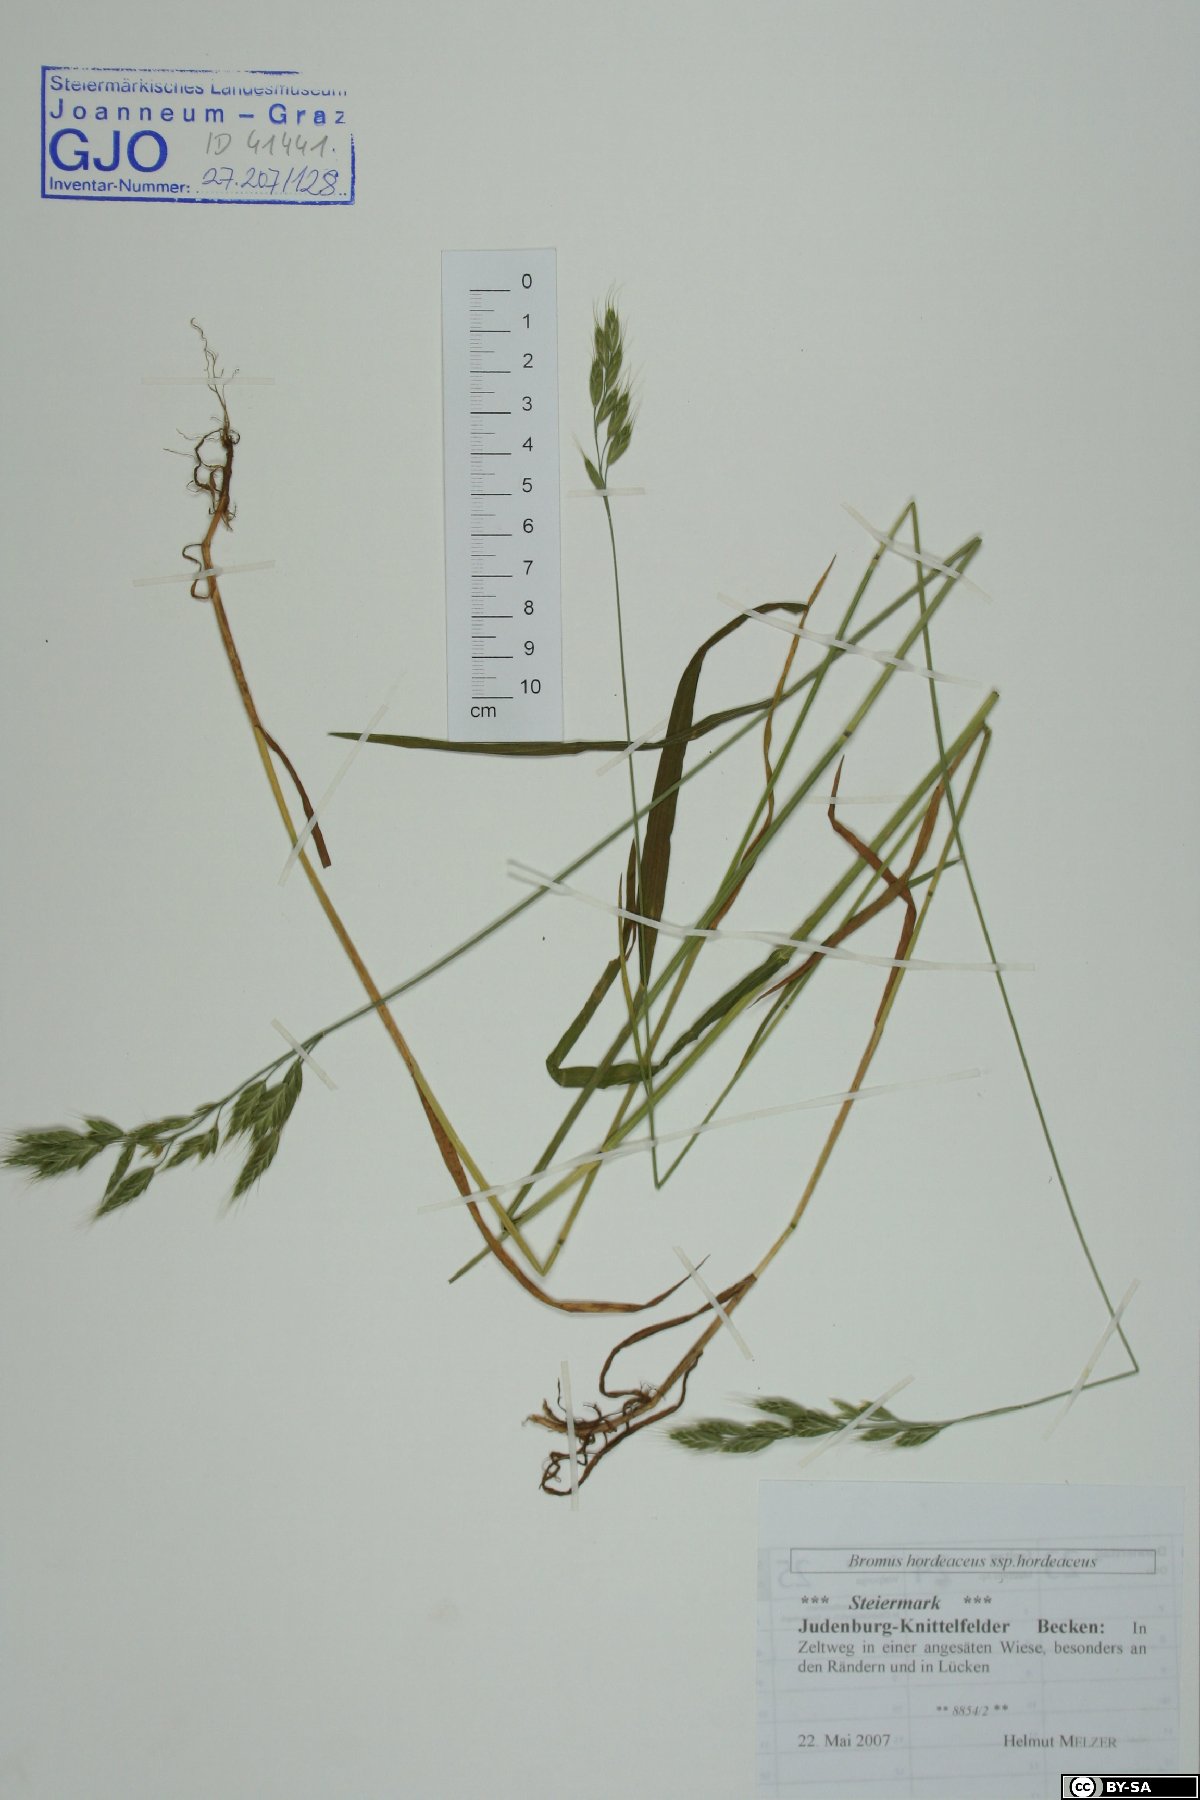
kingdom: Plantae
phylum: Tracheophyta
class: Liliopsida
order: Poales
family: Poaceae
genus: Bromus
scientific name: Bromus hordeaceus
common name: Soft brome
